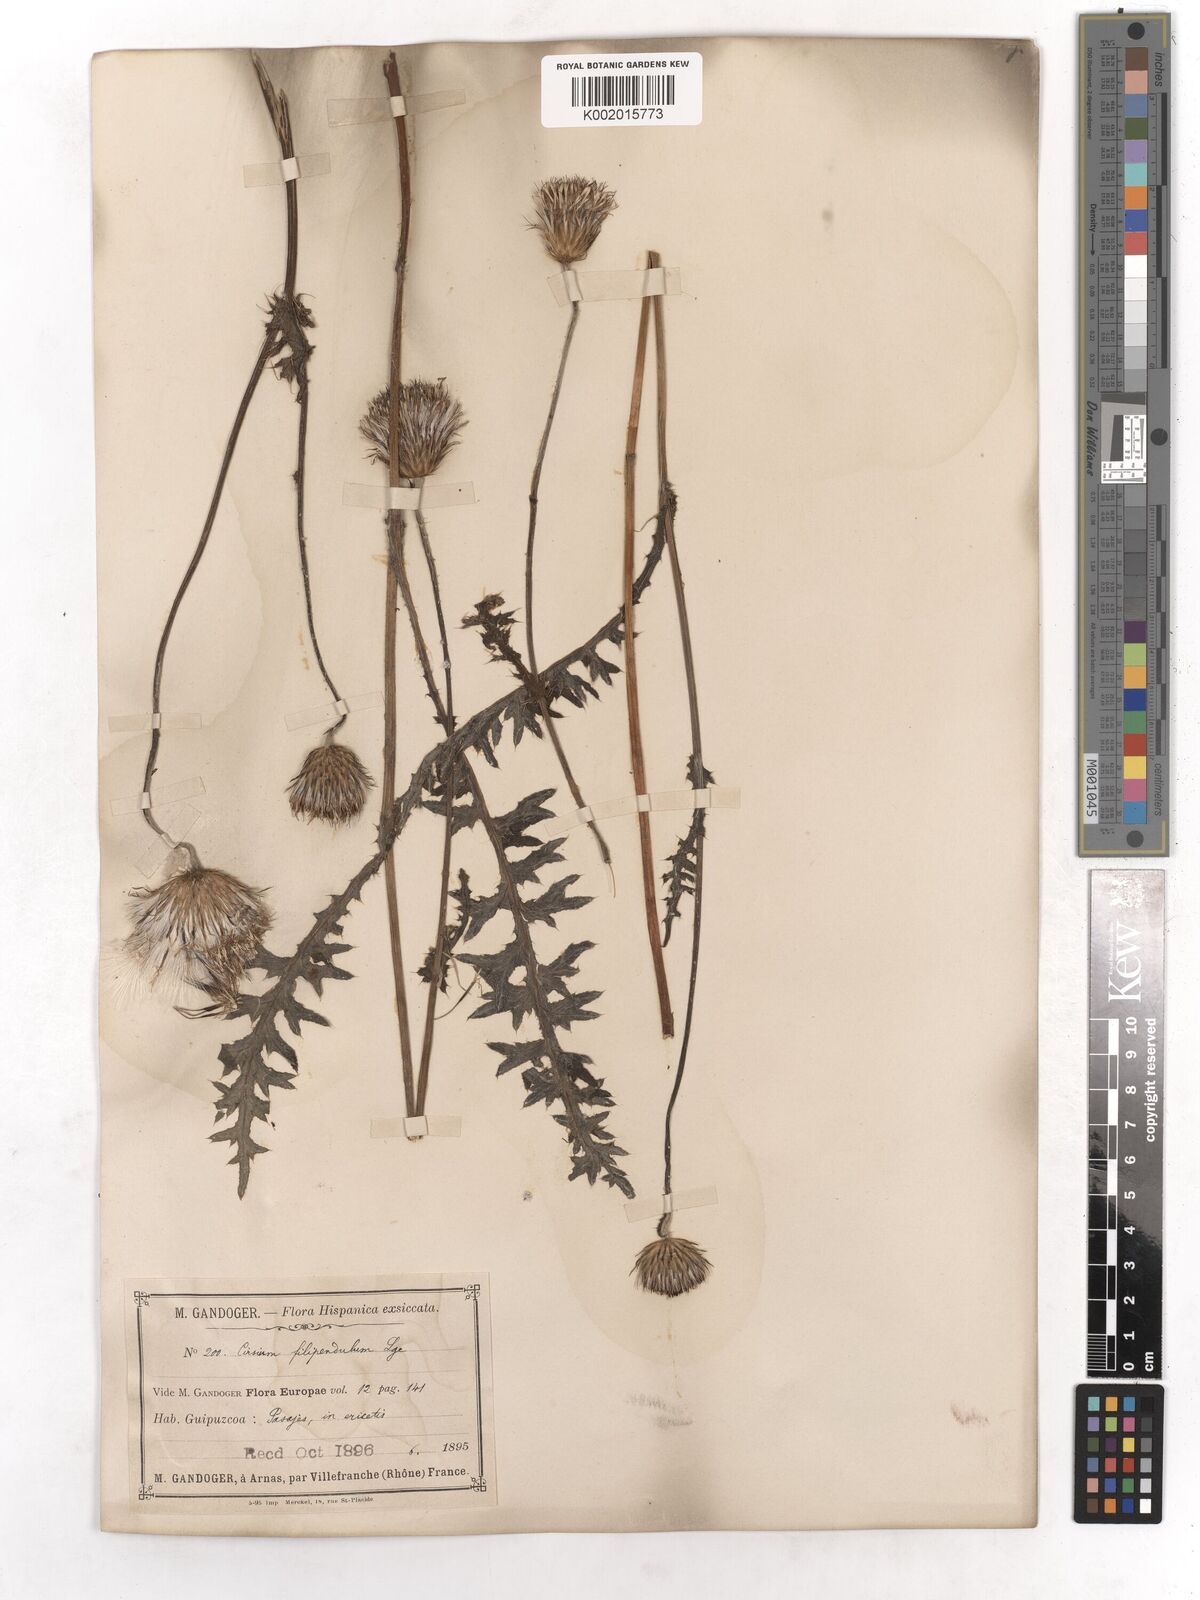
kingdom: Plantae
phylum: Tracheophyta
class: Magnoliopsida
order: Asterales
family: Asteraceae
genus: Cirsium
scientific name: Cirsium filipendulum
